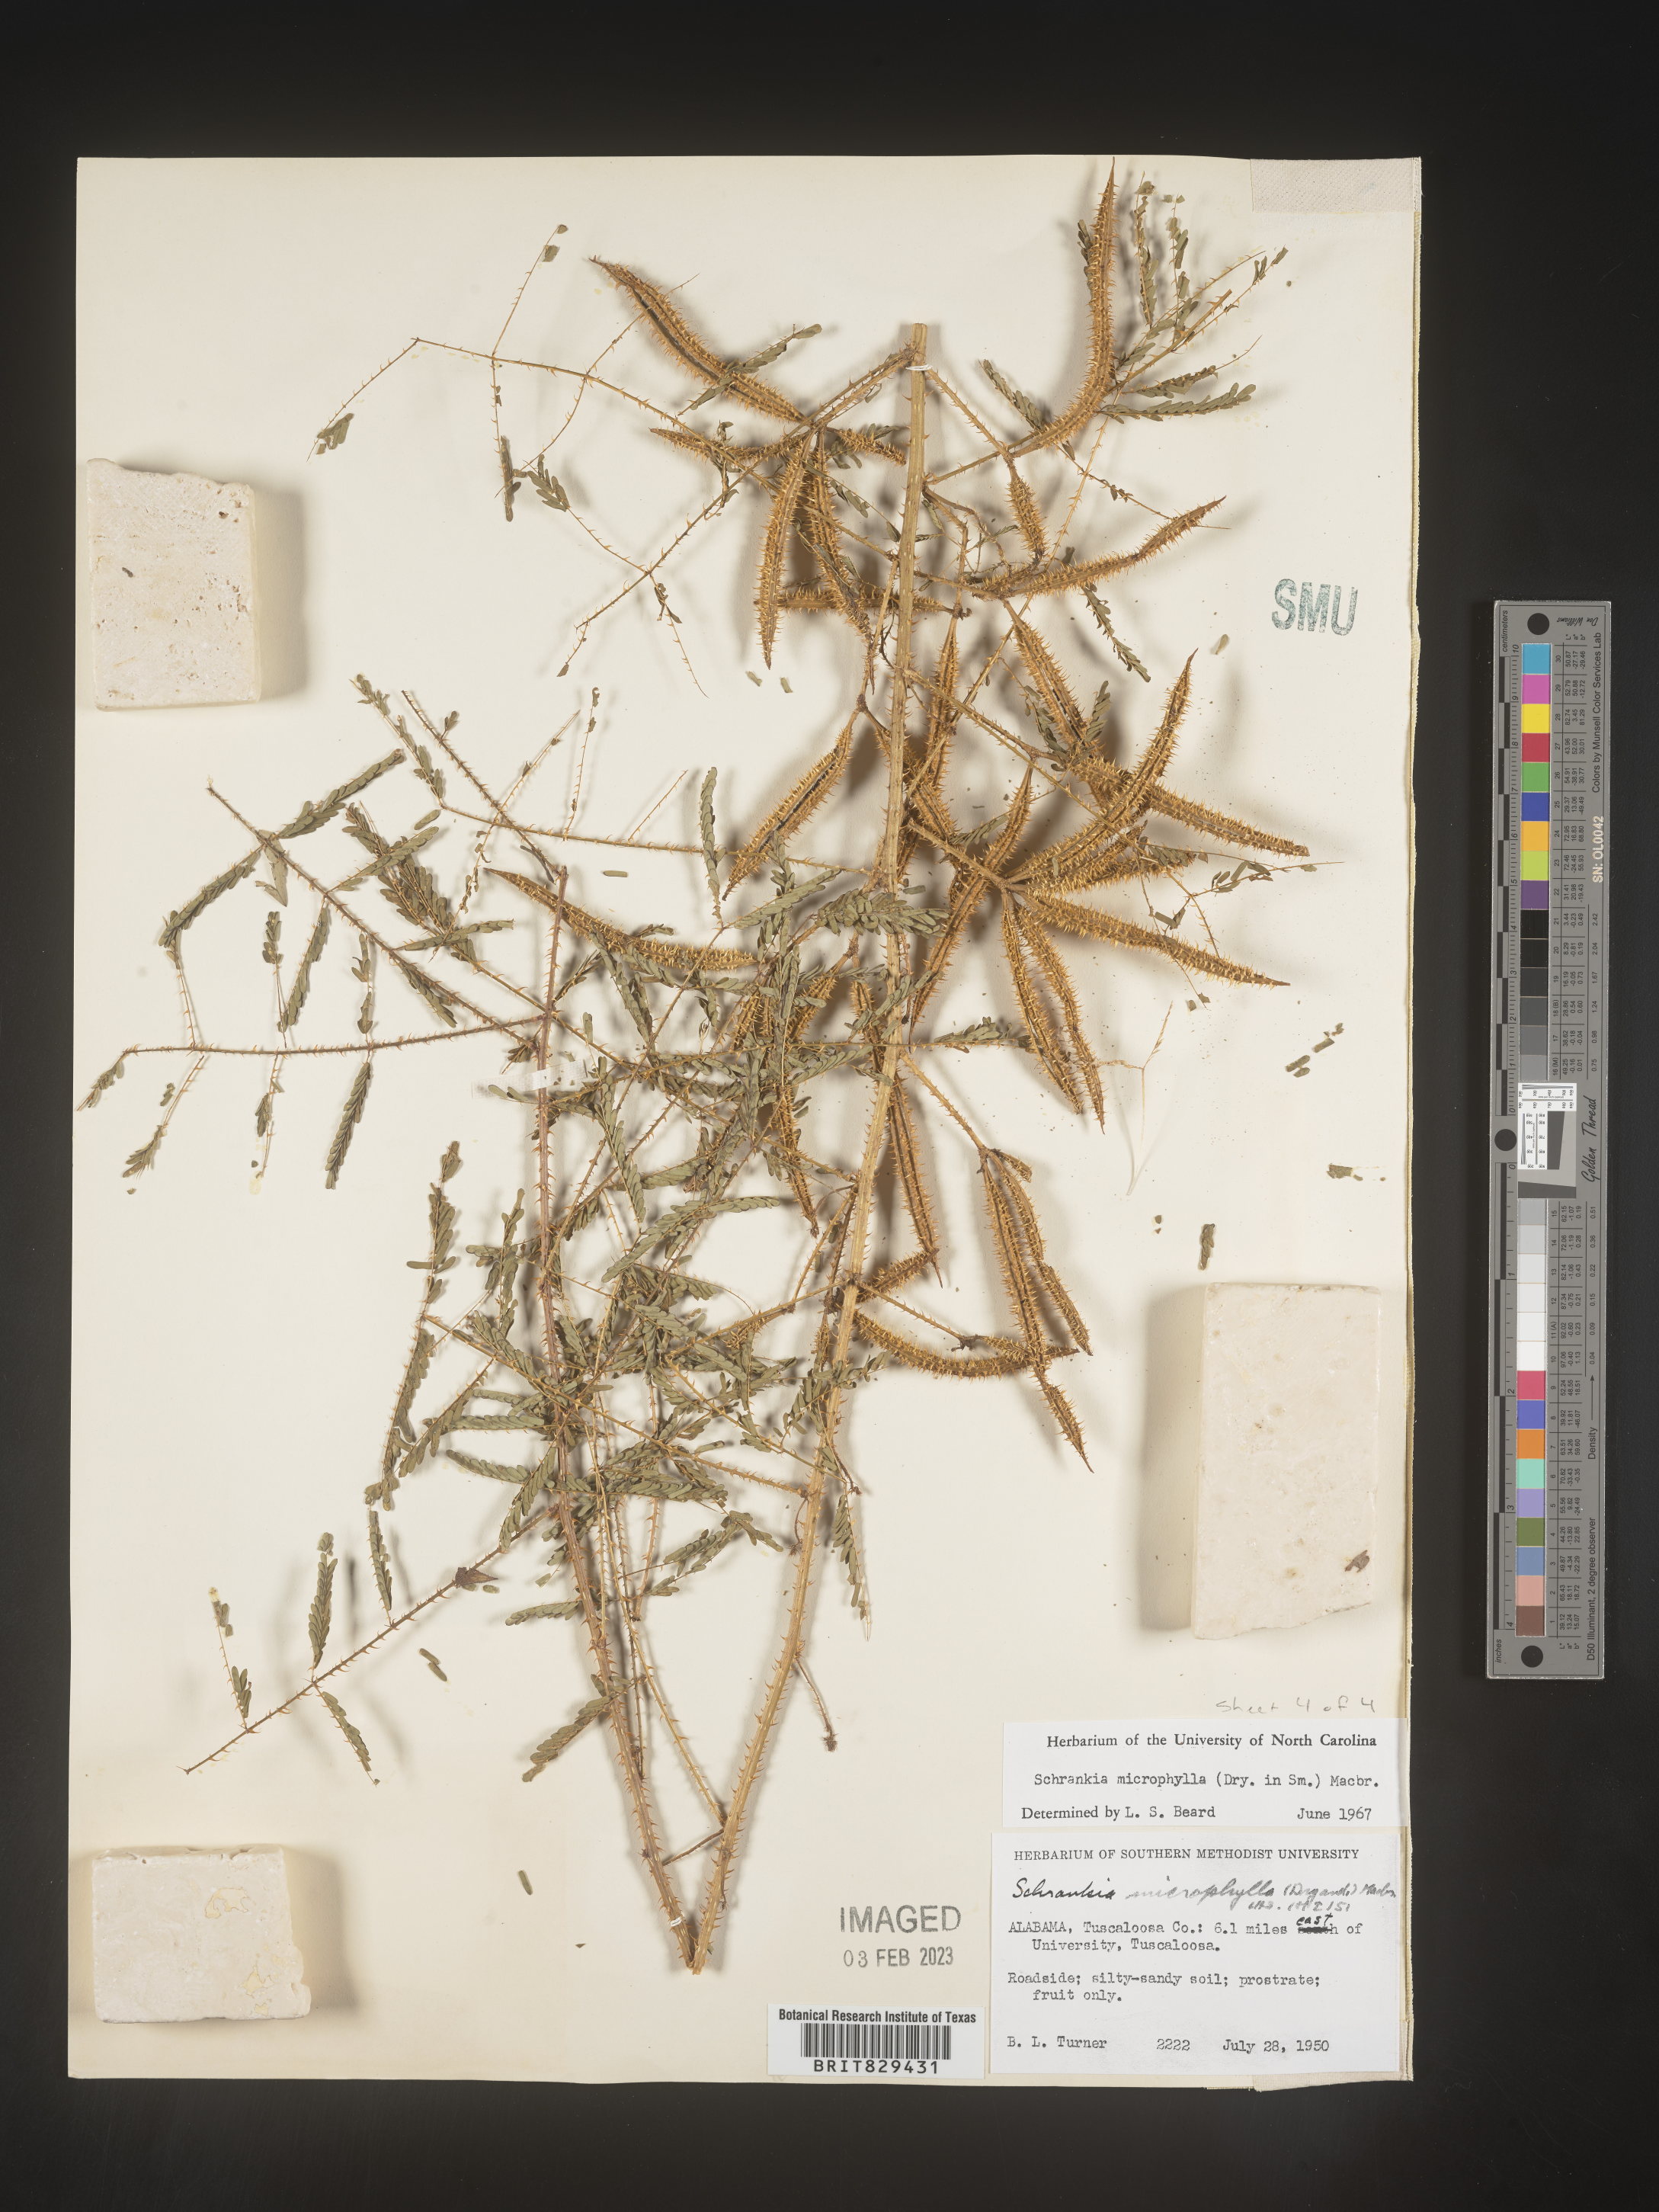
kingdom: Plantae
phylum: Tracheophyta
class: Magnoliopsida
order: Fabales
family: Fabaceae
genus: Mimosa
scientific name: Mimosa quadrivalvis
